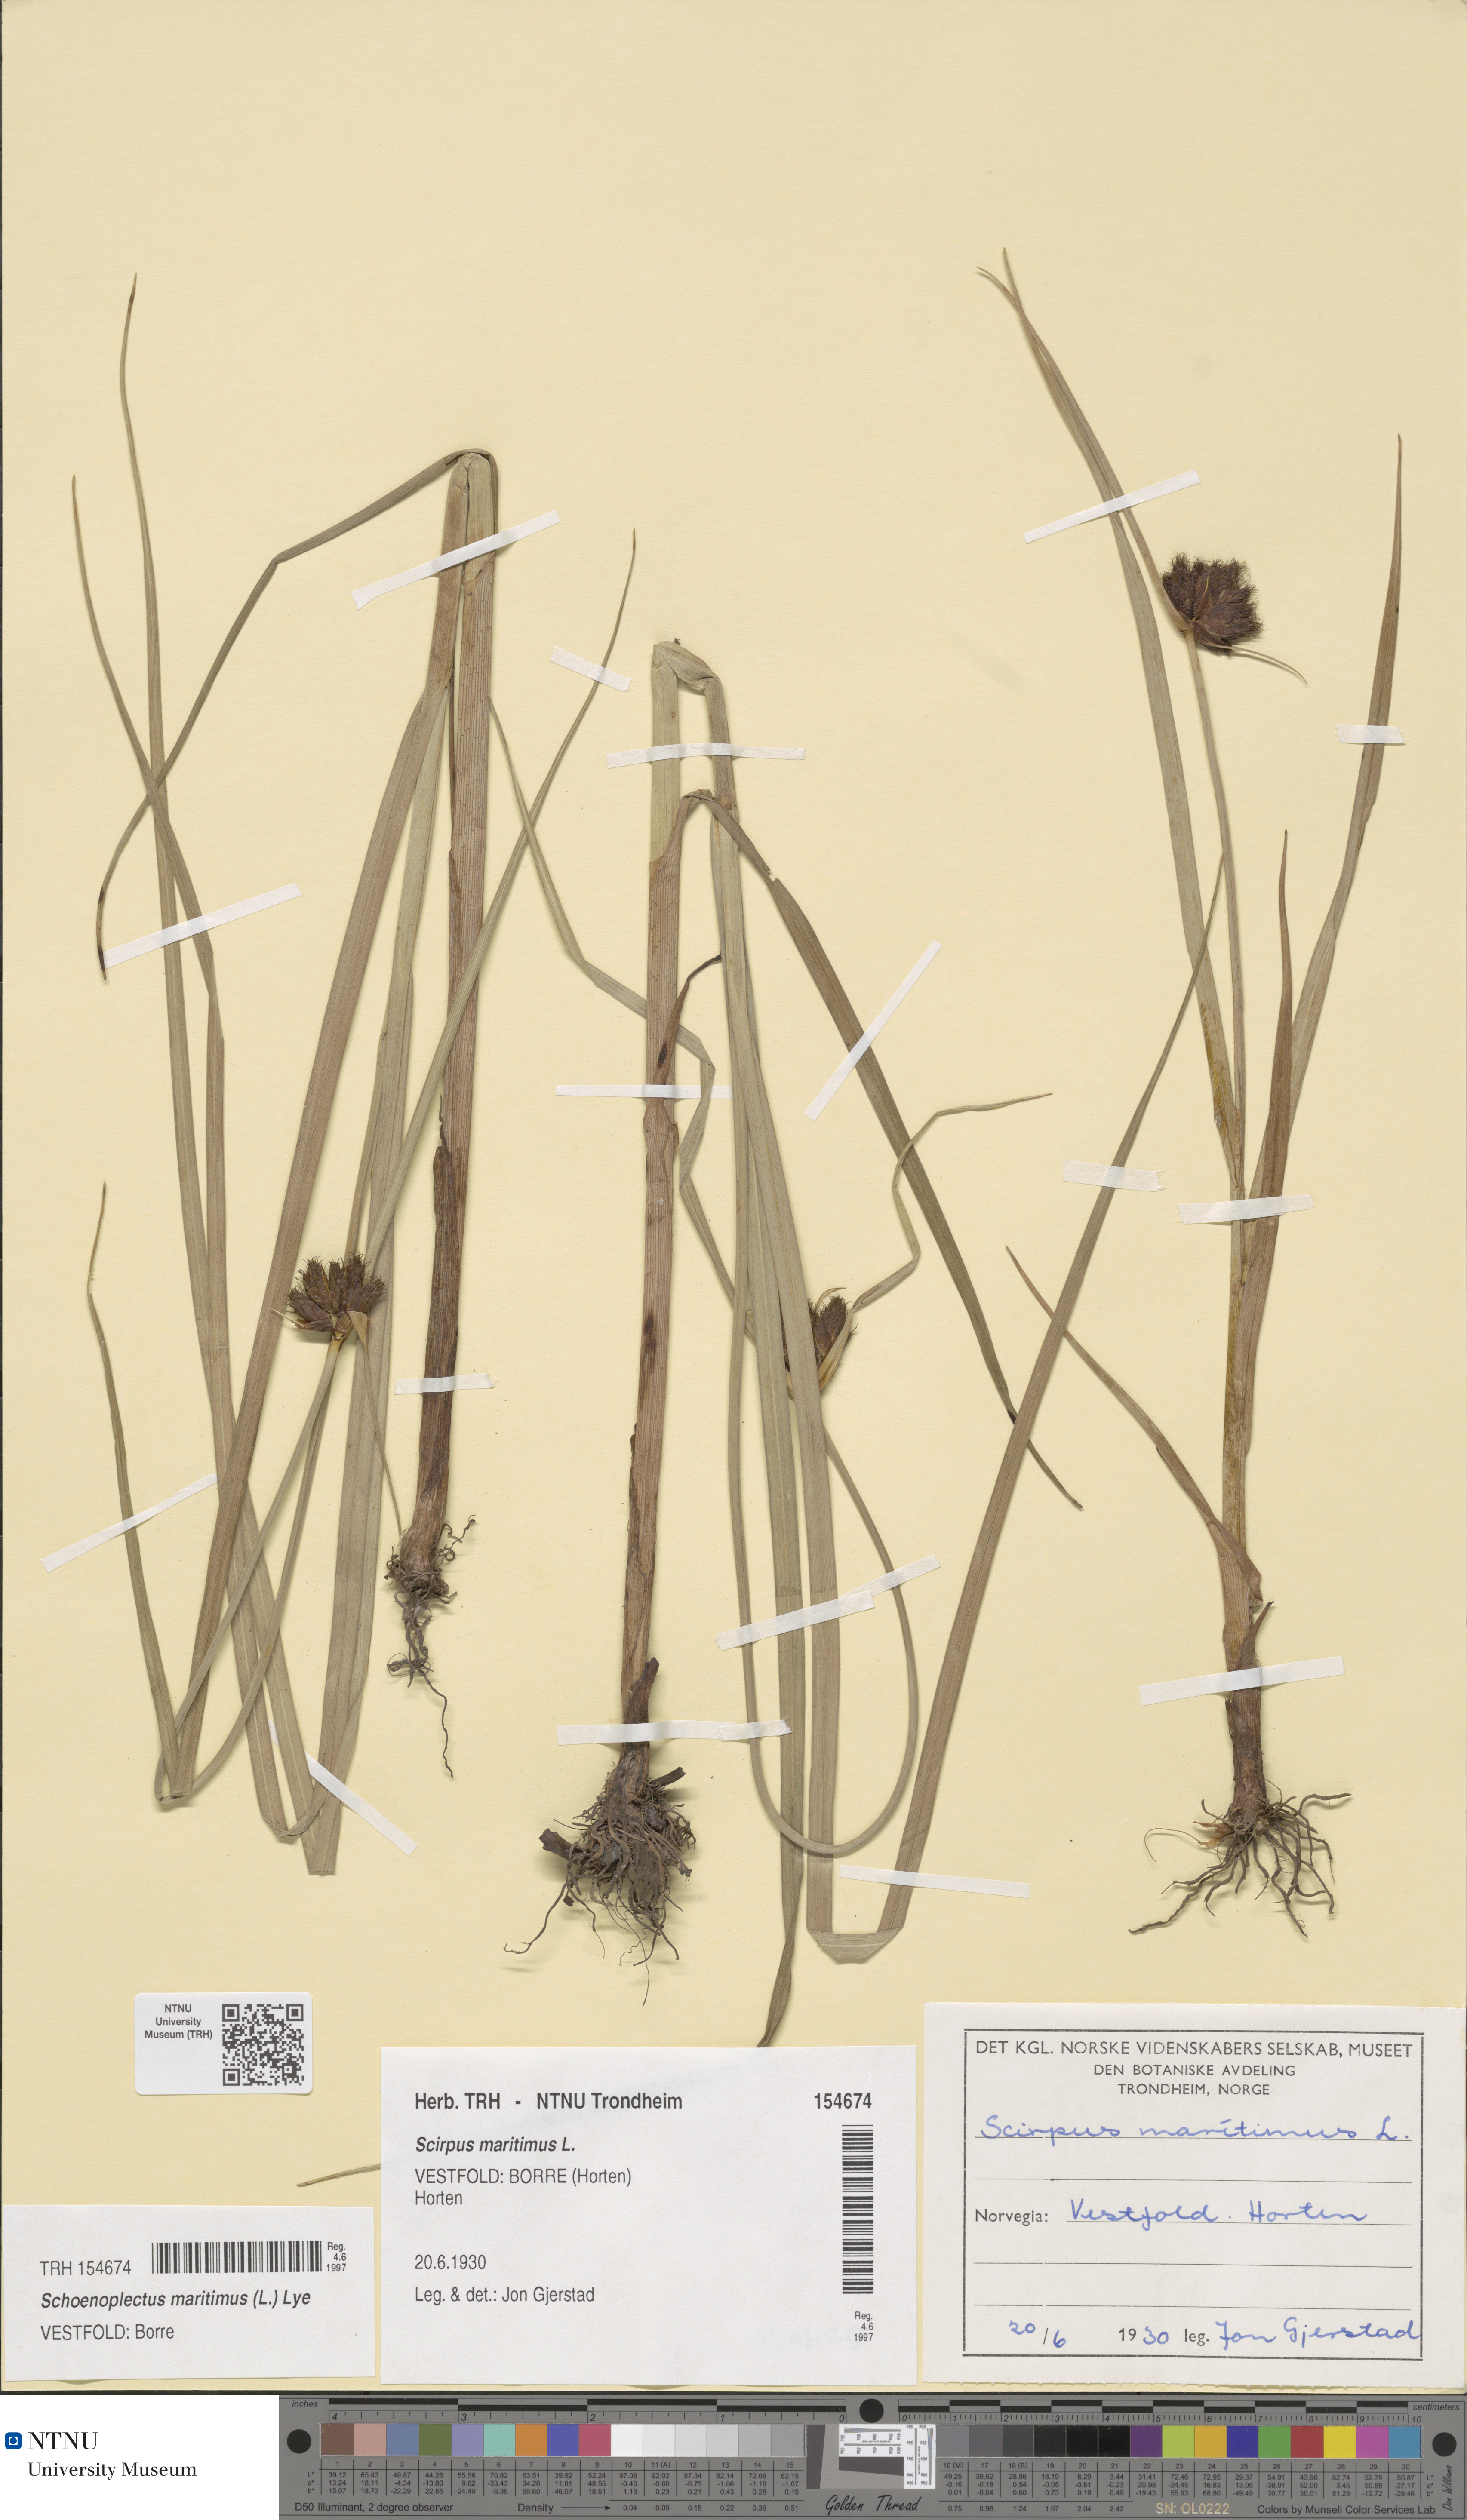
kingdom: Plantae
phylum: Tracheophyta
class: Liliopsida
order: Poales
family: Cyperaceae
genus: Bolboschoenus
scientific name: Bolboschoenus maritimus
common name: Sea club-rush
